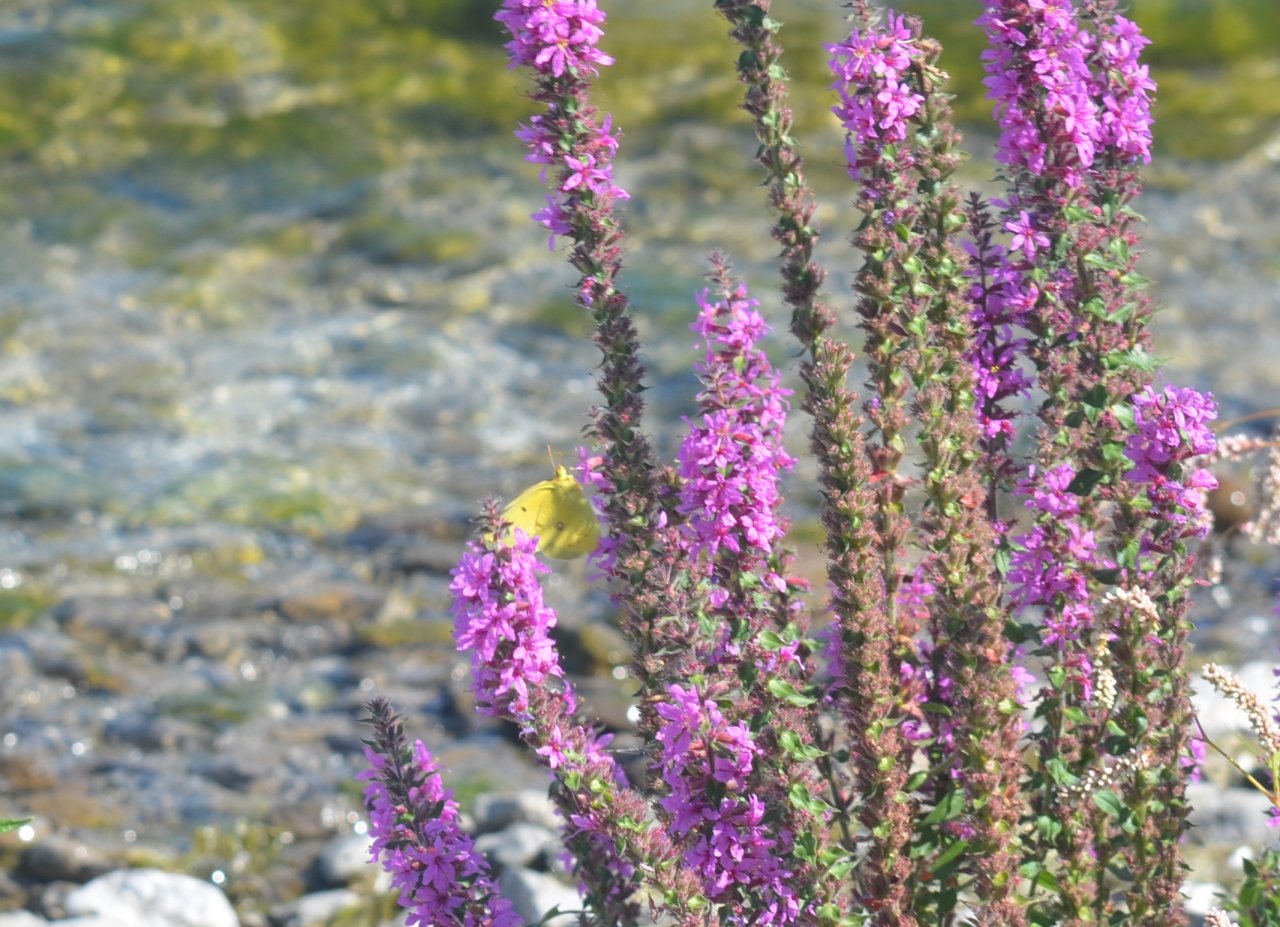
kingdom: Animalia
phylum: Arthropoda
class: Insecta
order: Lepidoptera
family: Pieridae
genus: Colias
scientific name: Colias eurytheme
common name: Orange Sulphur
